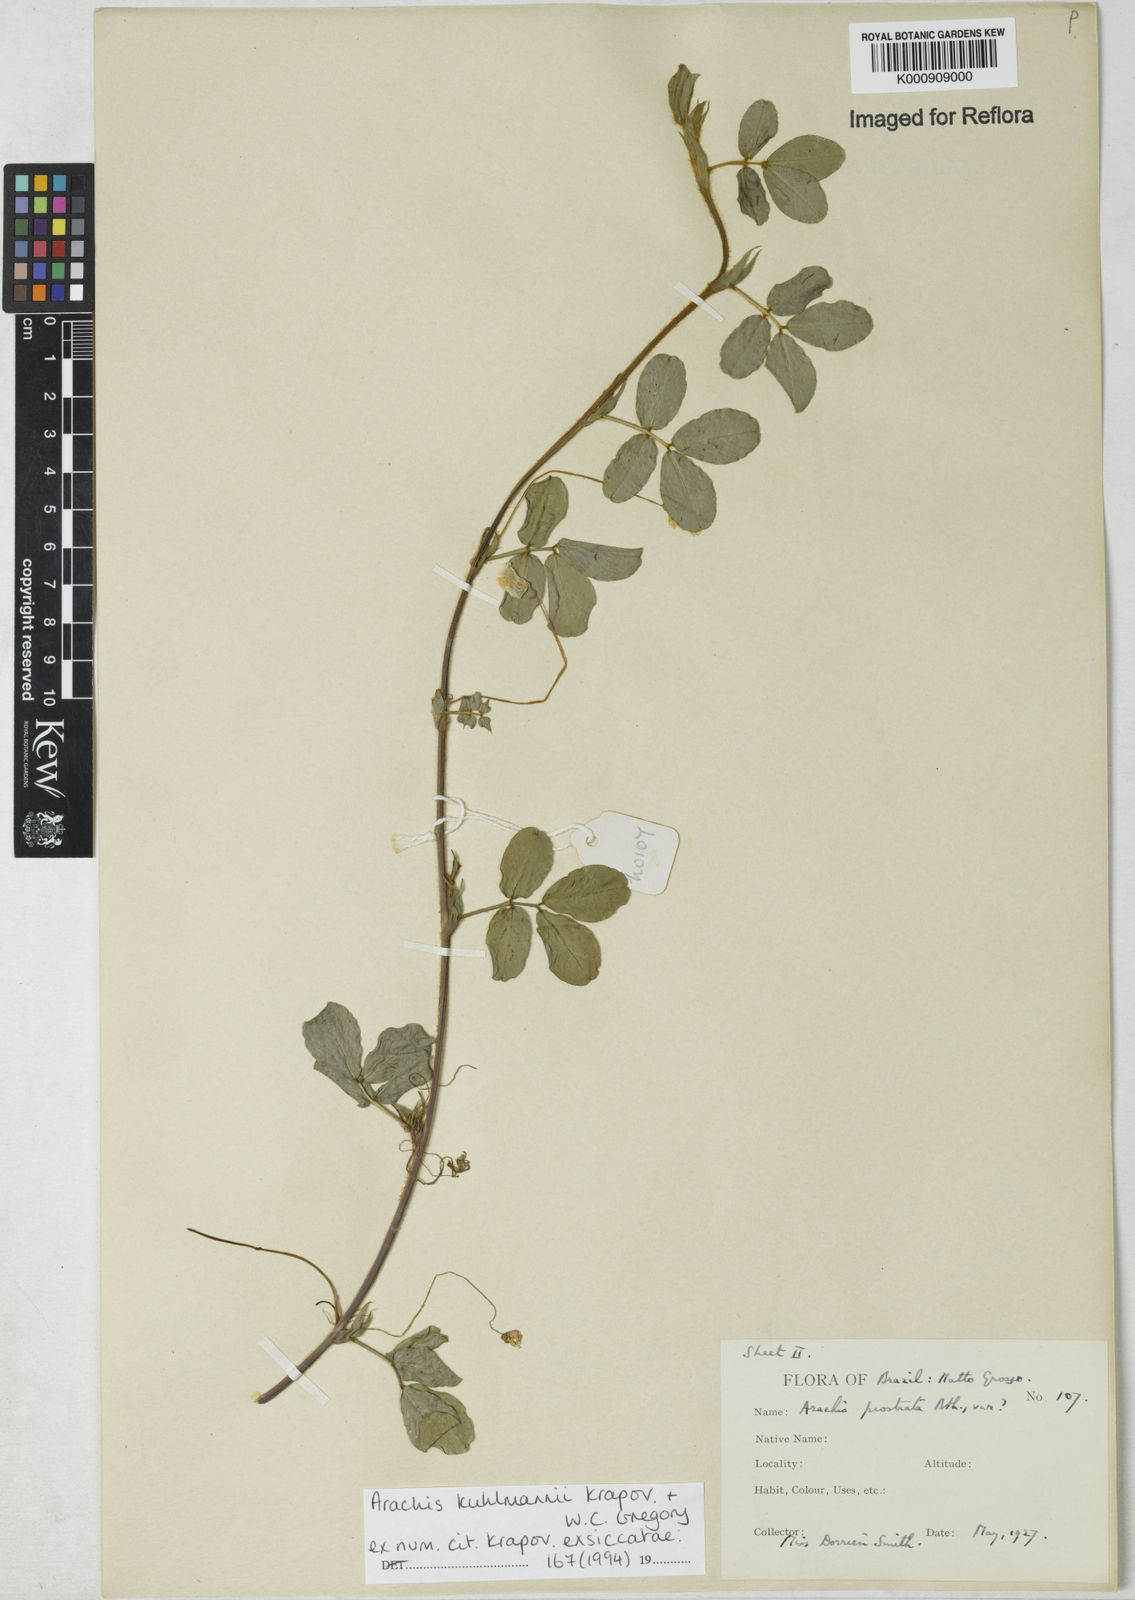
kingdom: Plantae
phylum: Tracheophyta
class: Magnoliopsida
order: Fabales
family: Fabaceae
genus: Arachis
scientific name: Arachis kuhlmannii
